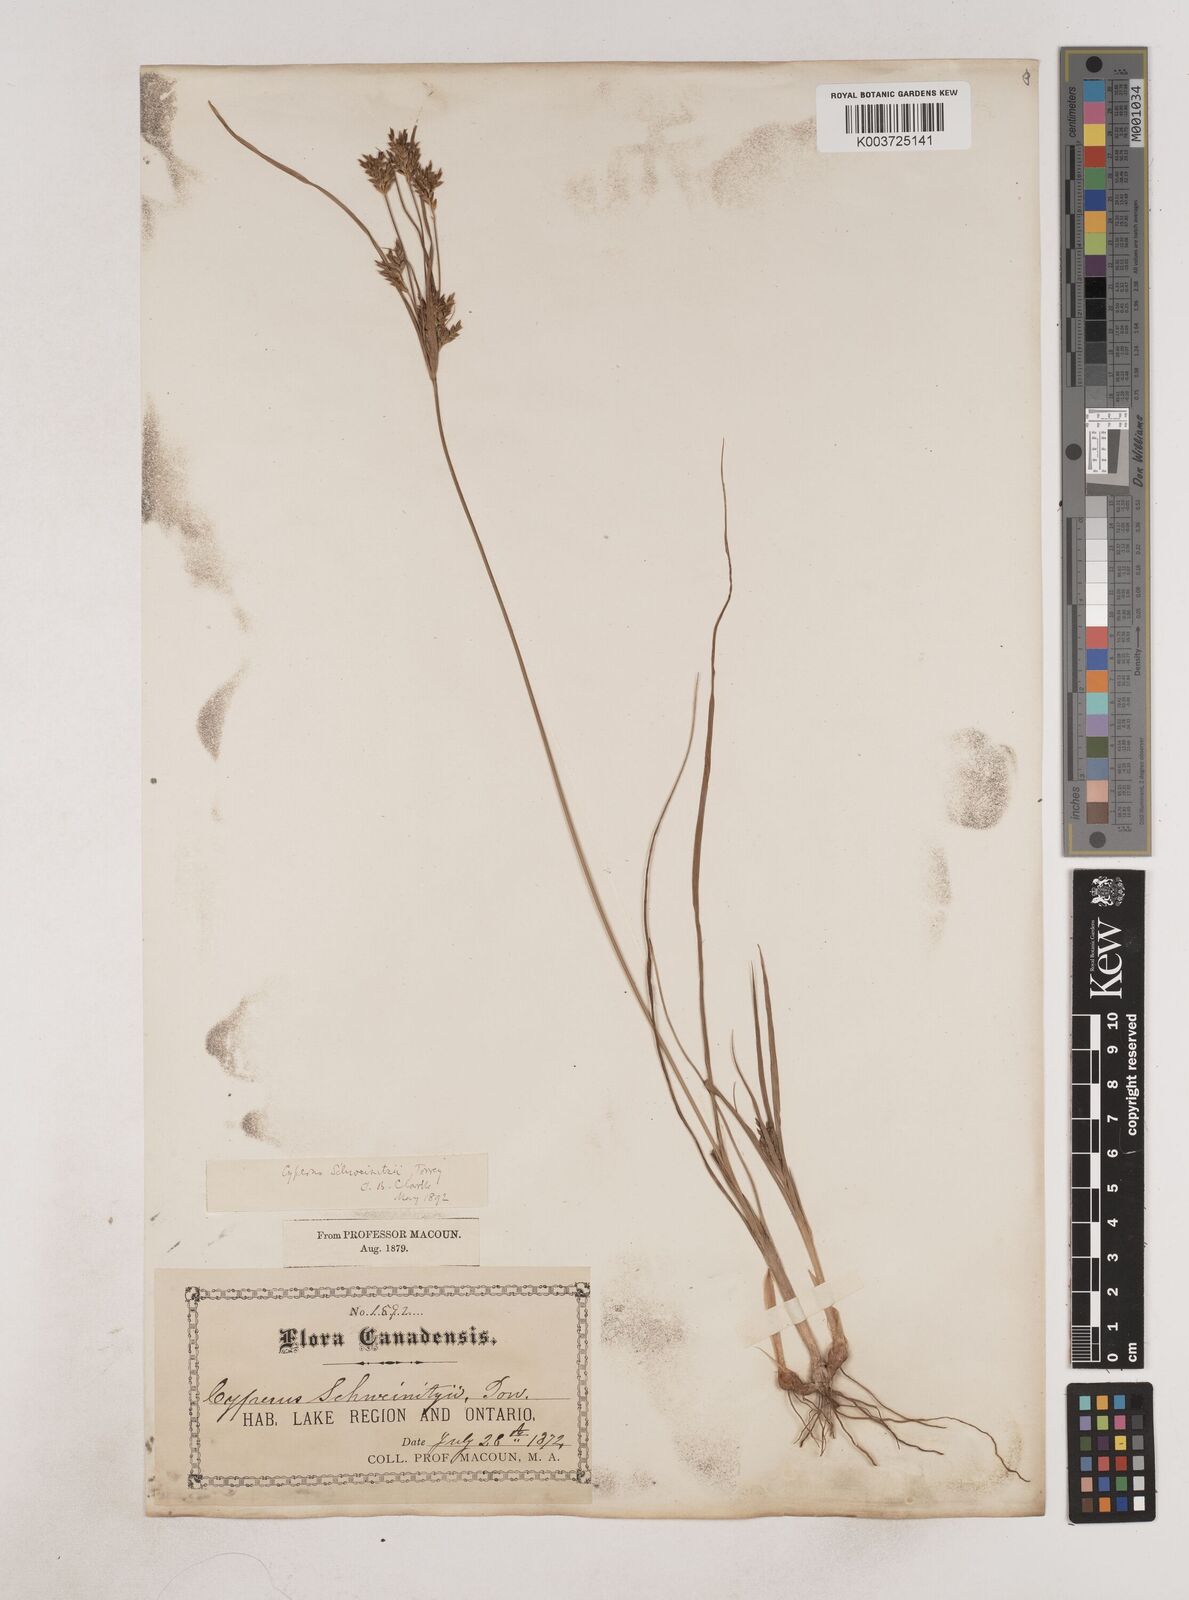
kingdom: Plantae
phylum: Tracheophyta
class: Liliopsida
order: Poales
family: Cyperaceae
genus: Cyperus
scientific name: Cyperus schweinitzii
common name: Schweinitz's cyperus
